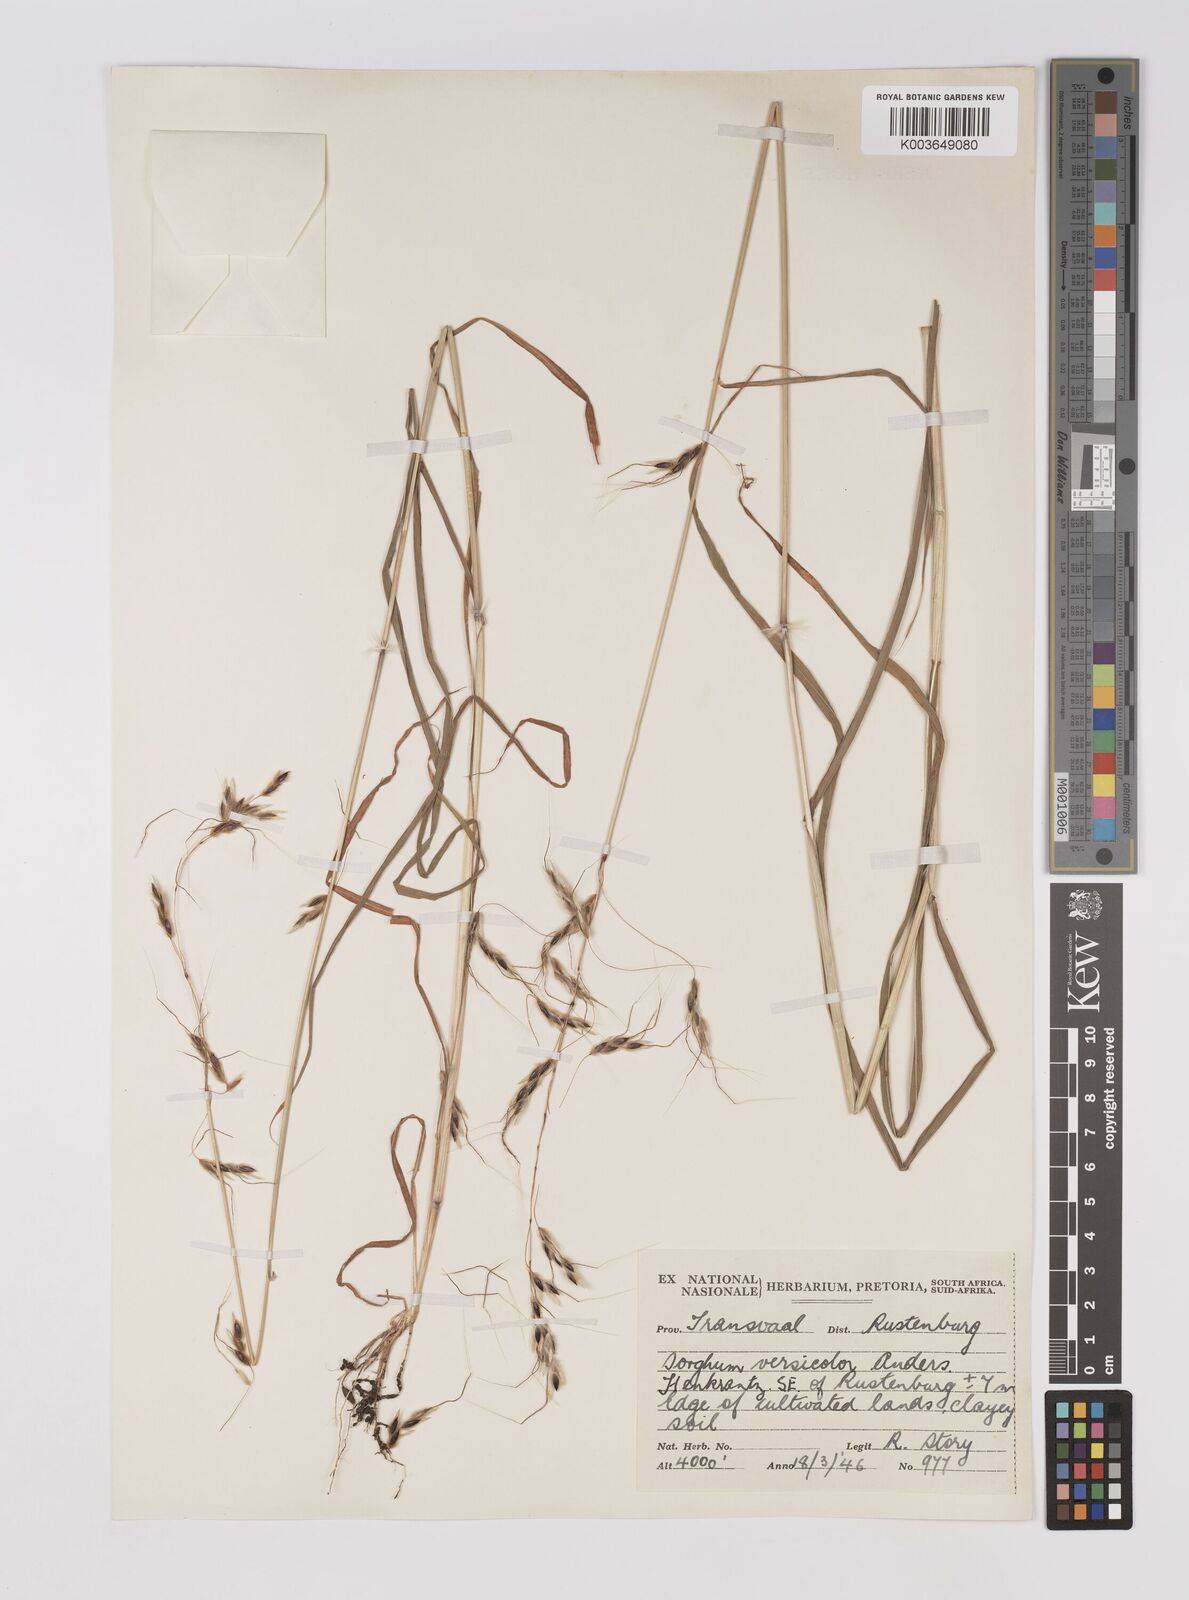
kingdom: Plantae
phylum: Tracheophyta
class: Liliopsida
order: Poales
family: Poaceae
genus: Sarga
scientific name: Sarga versicolor
